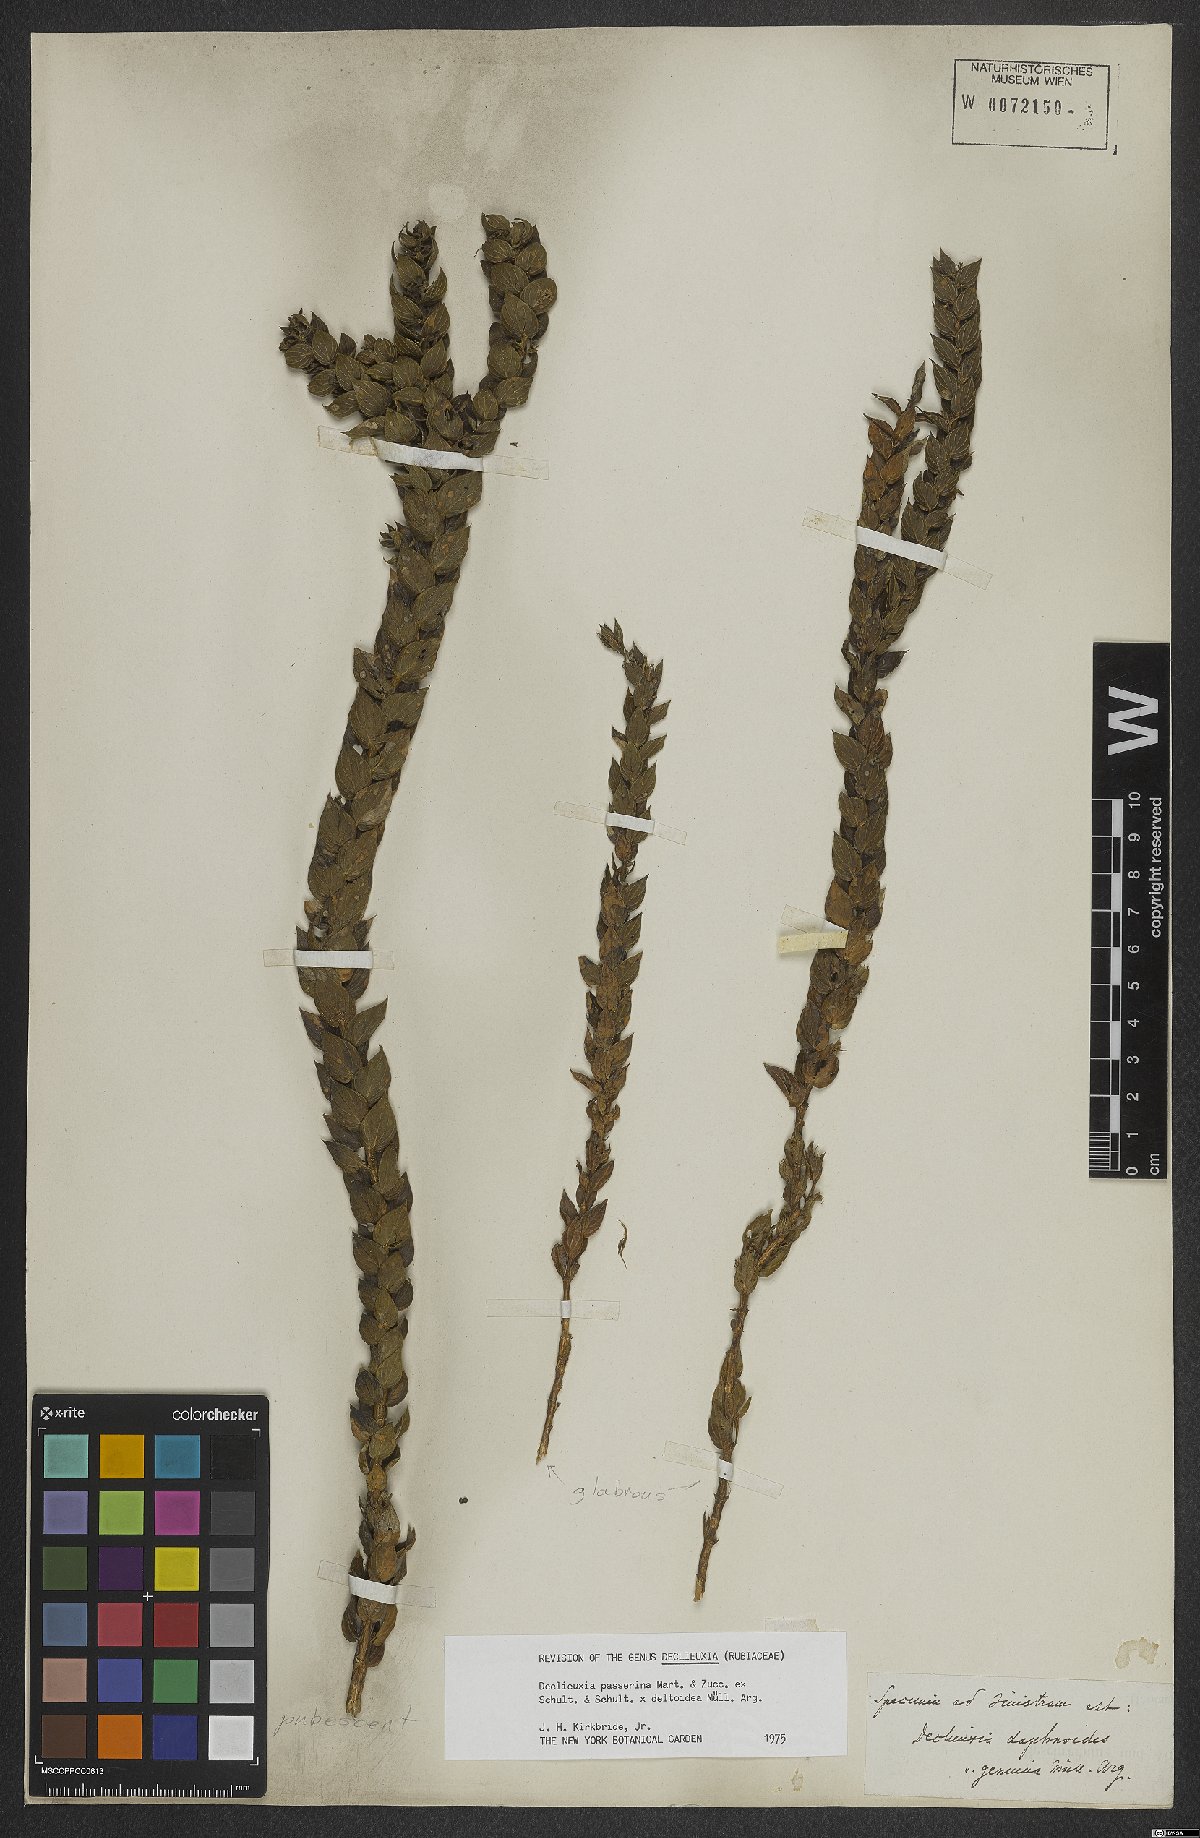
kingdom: Plantae
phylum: Tracheophyta
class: Magnoliopsida
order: Gentianales
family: Rubiaceae
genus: Declieuxia
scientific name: Declieuxia deltoidea
